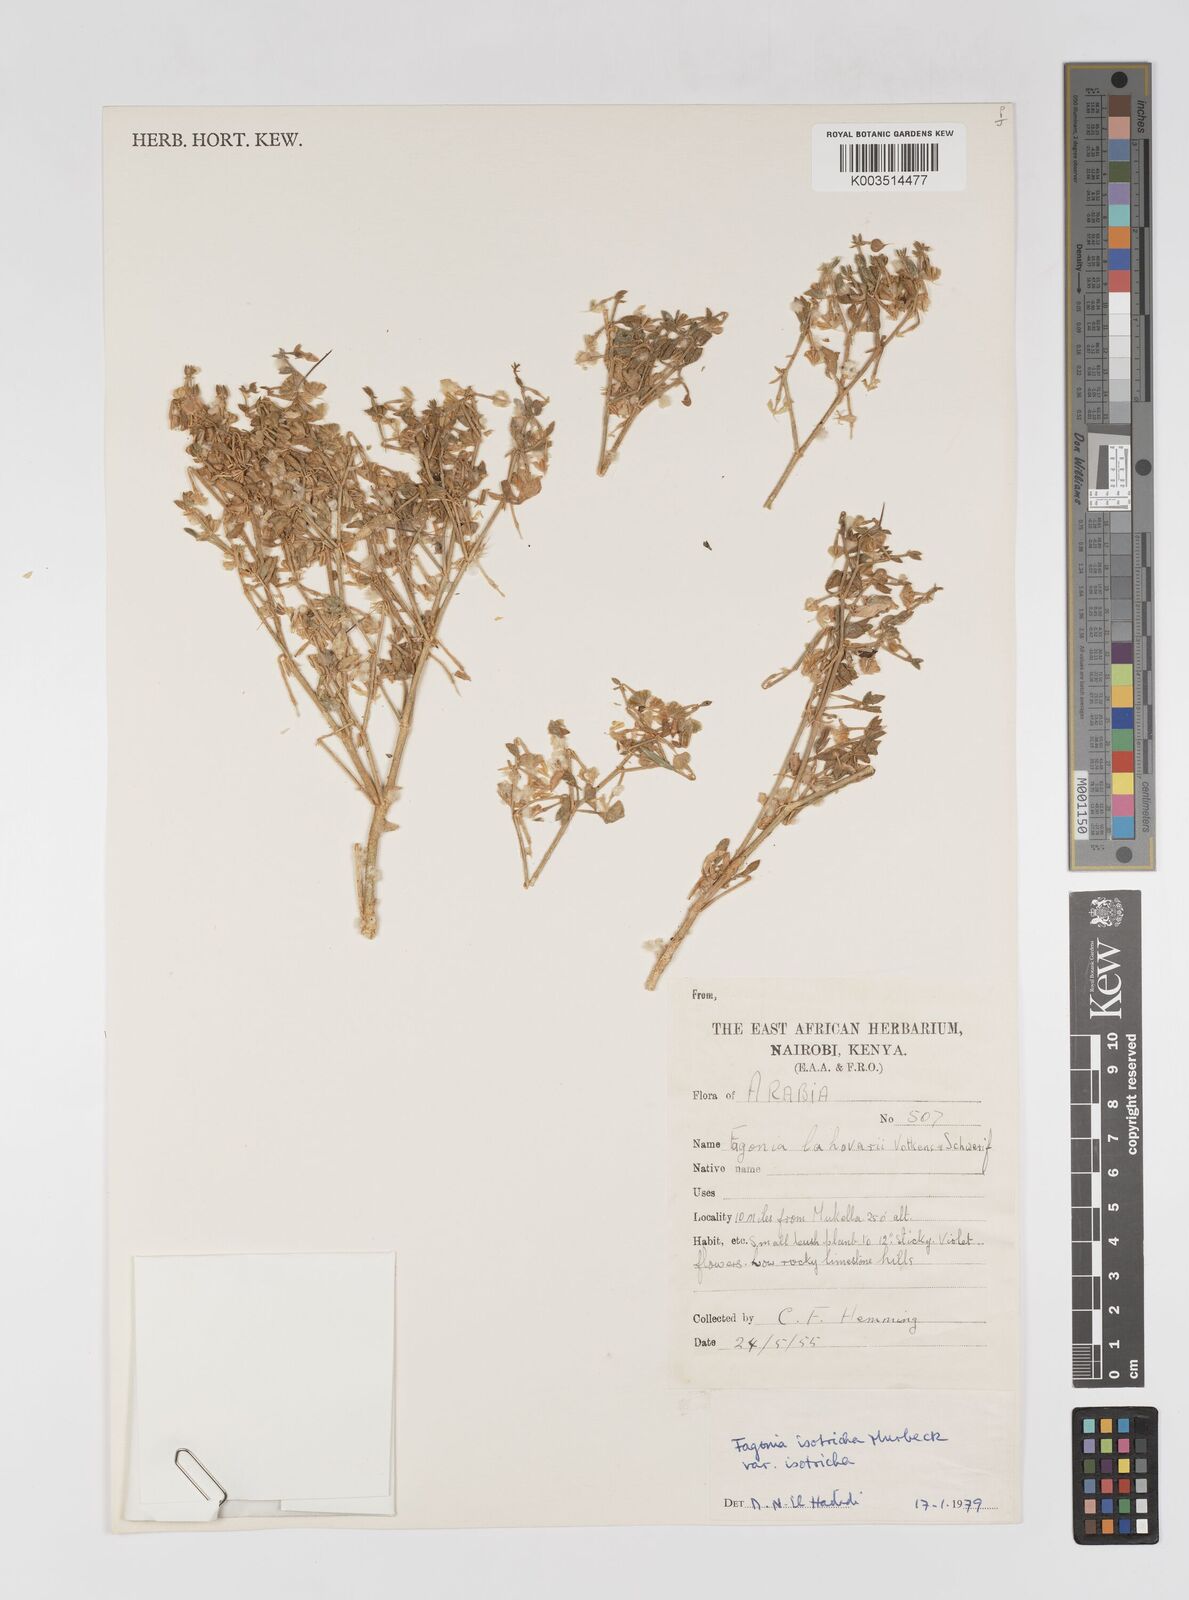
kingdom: Plantae
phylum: Tracheophyta
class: Magnoliopsida
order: Zygophyllales
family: Zygophyllaceae
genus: Fagonia
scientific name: Fagonia latifolia
